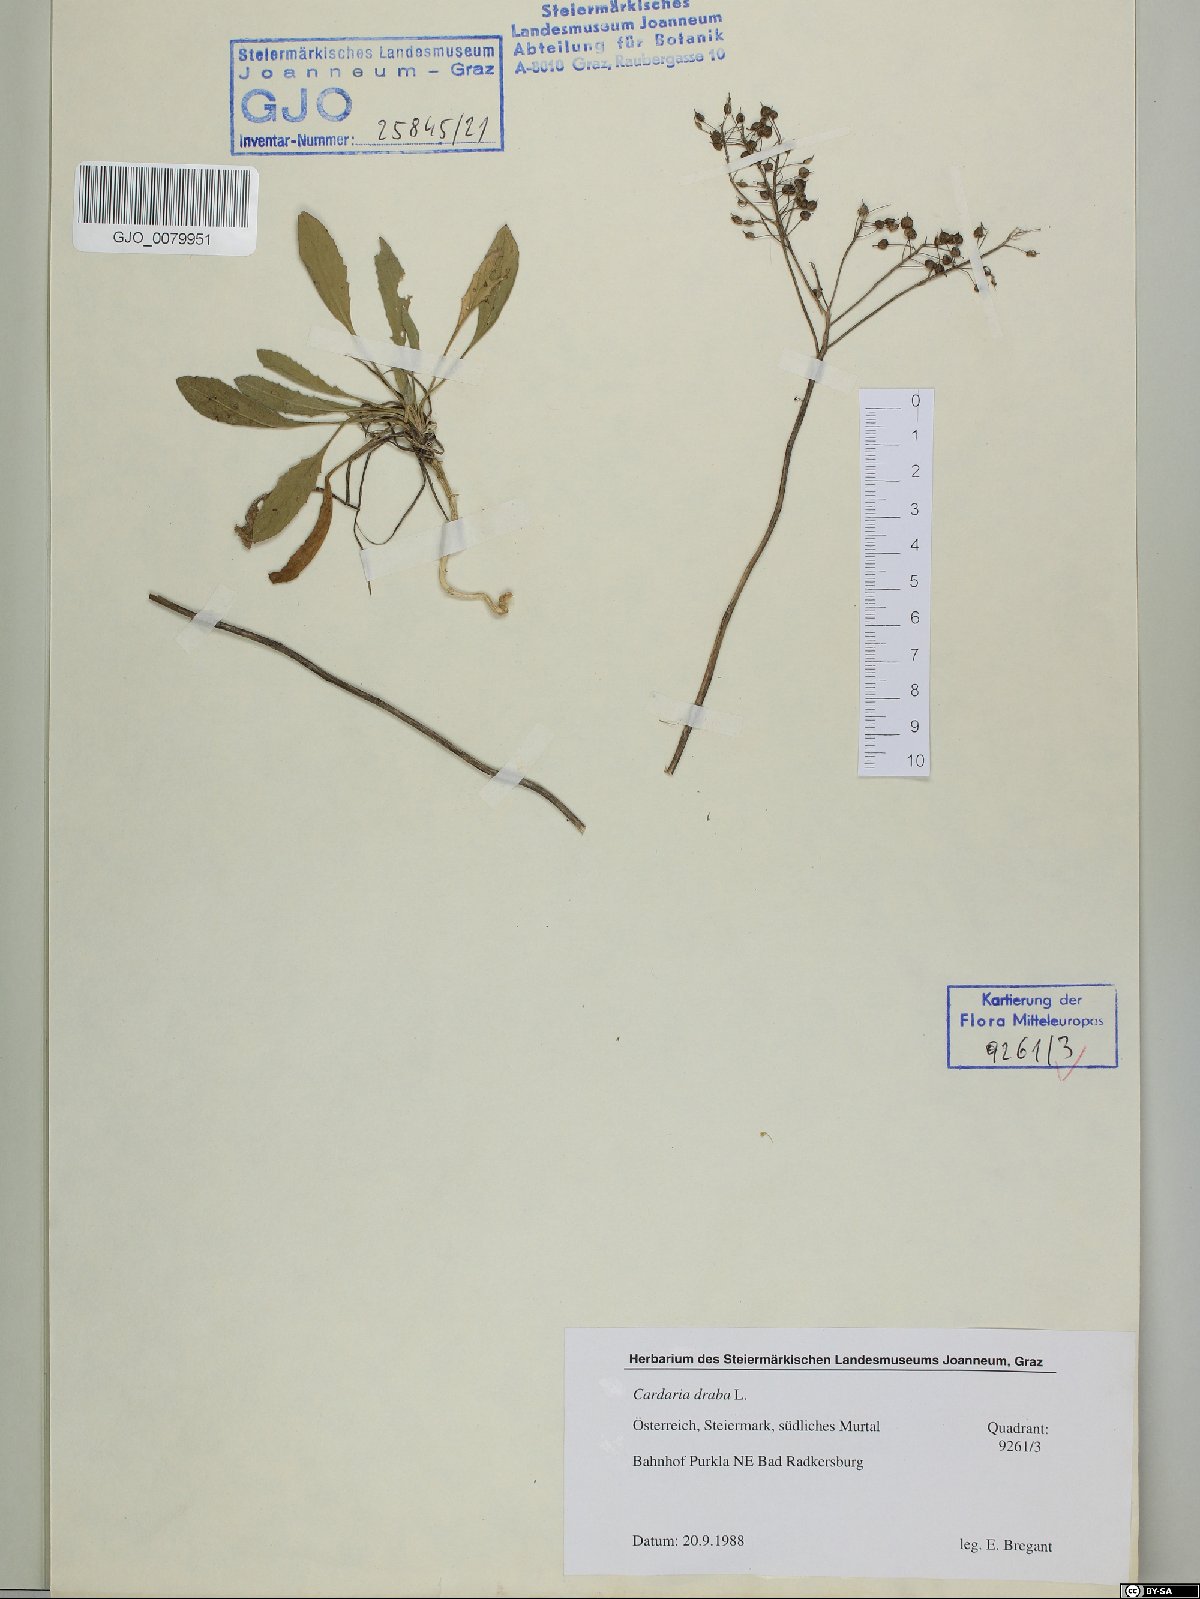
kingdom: Plantae
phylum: Tracheophyta
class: Magnoliopsida
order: Brassicales
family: Brassicaceae
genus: Lepidium
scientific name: Lepidium draba
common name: Hoary cress
